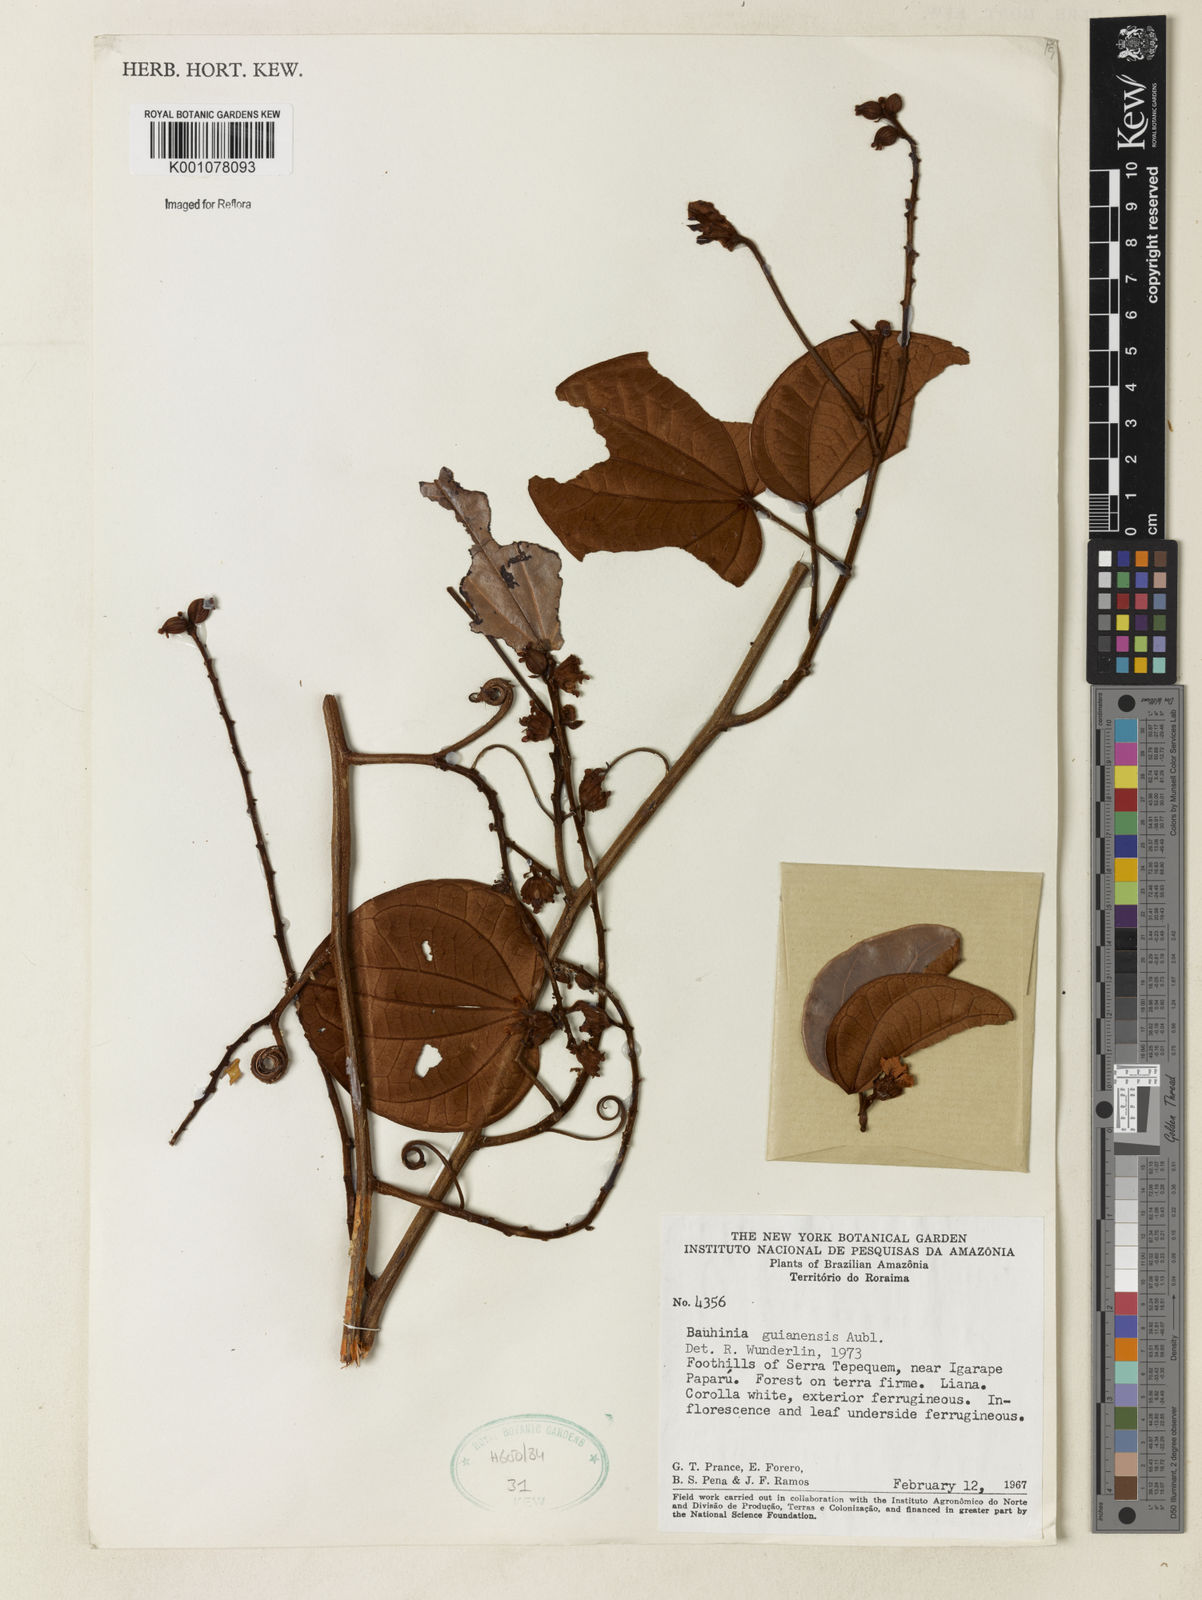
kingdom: Plantae
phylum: Tracheophyta
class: Magnoliopsida
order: Fabales
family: Fabaceae
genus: Schnella
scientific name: Schnella guianensis
